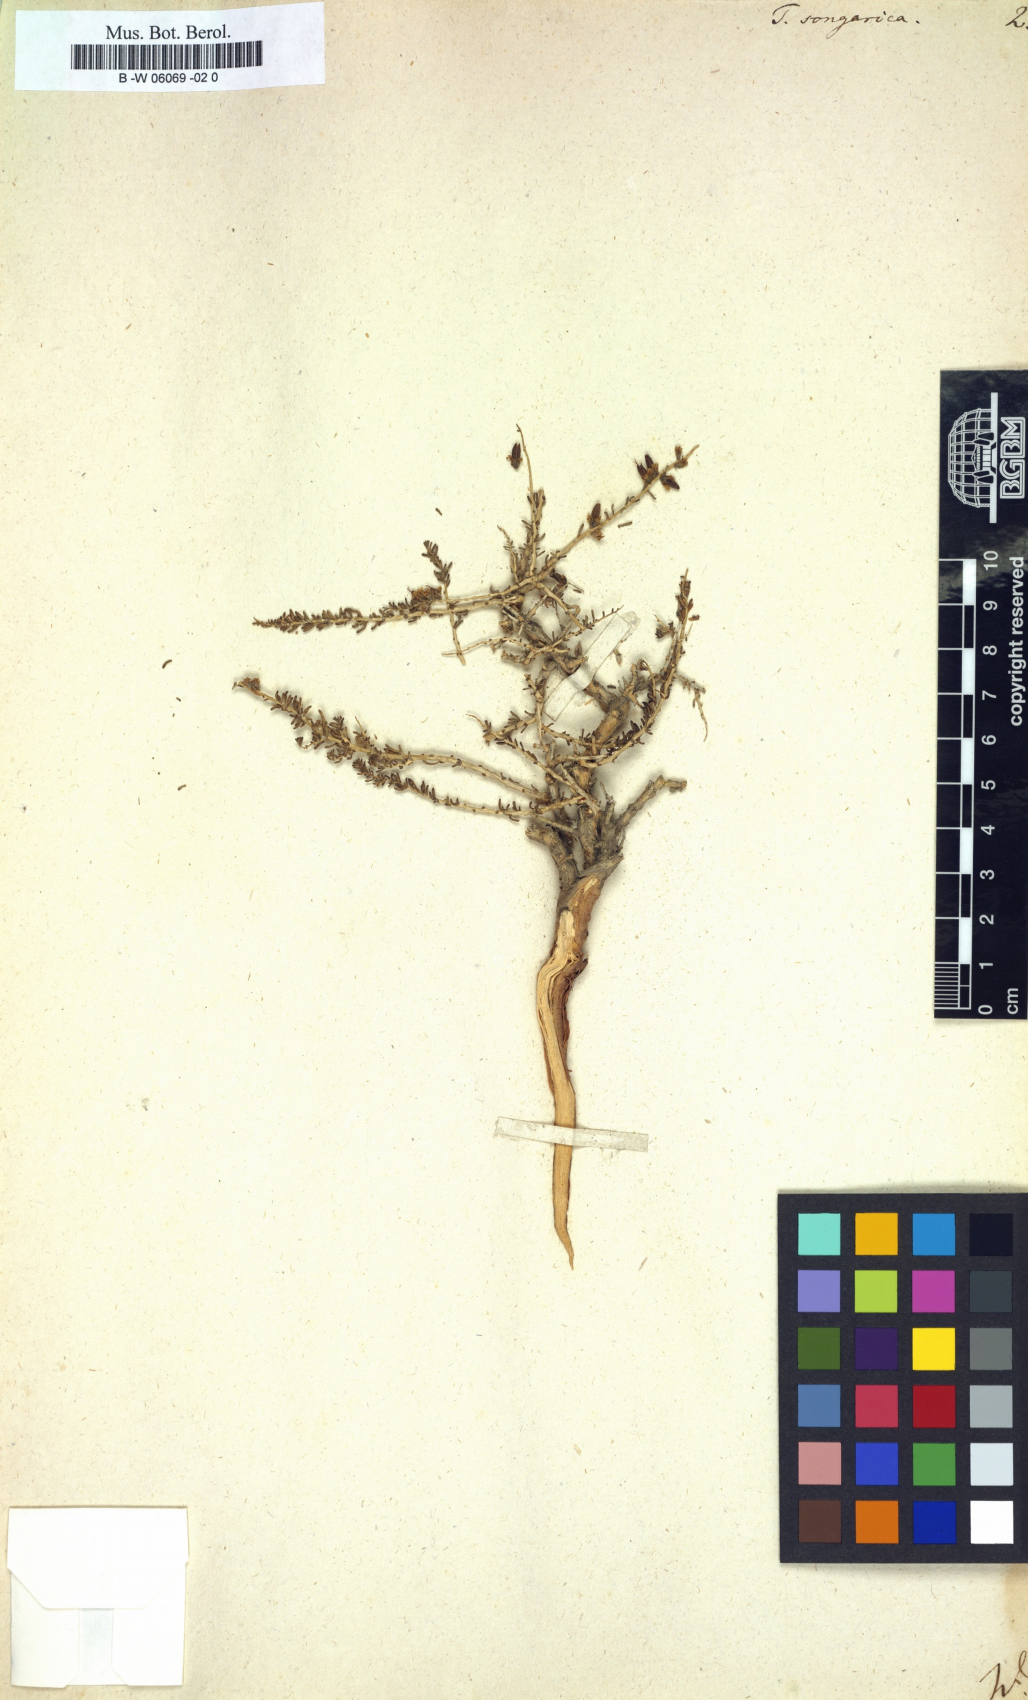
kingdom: Plantae
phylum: Tracheophyta
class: Magnoliopsida
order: Caryophyllales
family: Tamaricaceae
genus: Reaumuria
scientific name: Reaumuria songarica
